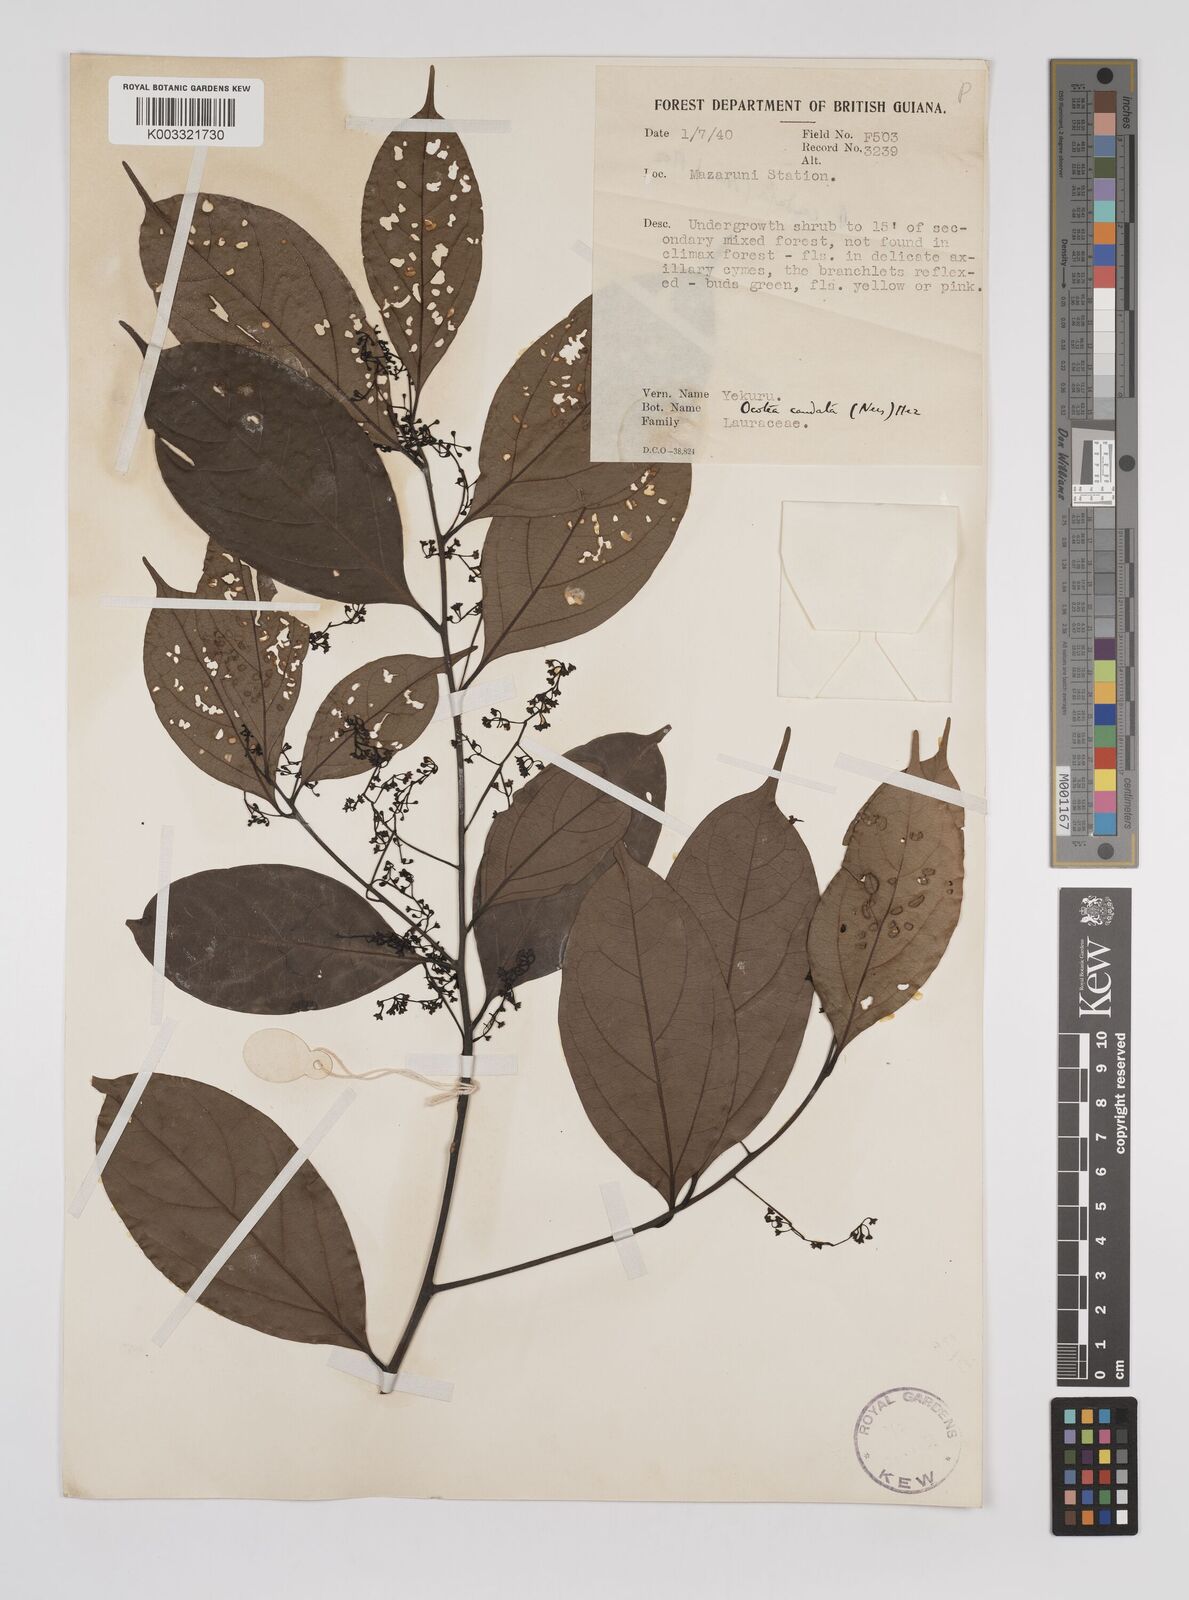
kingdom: Plantae
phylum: Tracheophyta
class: Magnoliopsida
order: Laurales
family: Lauraceae
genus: Ocotea
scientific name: Ocotea leptobotra
